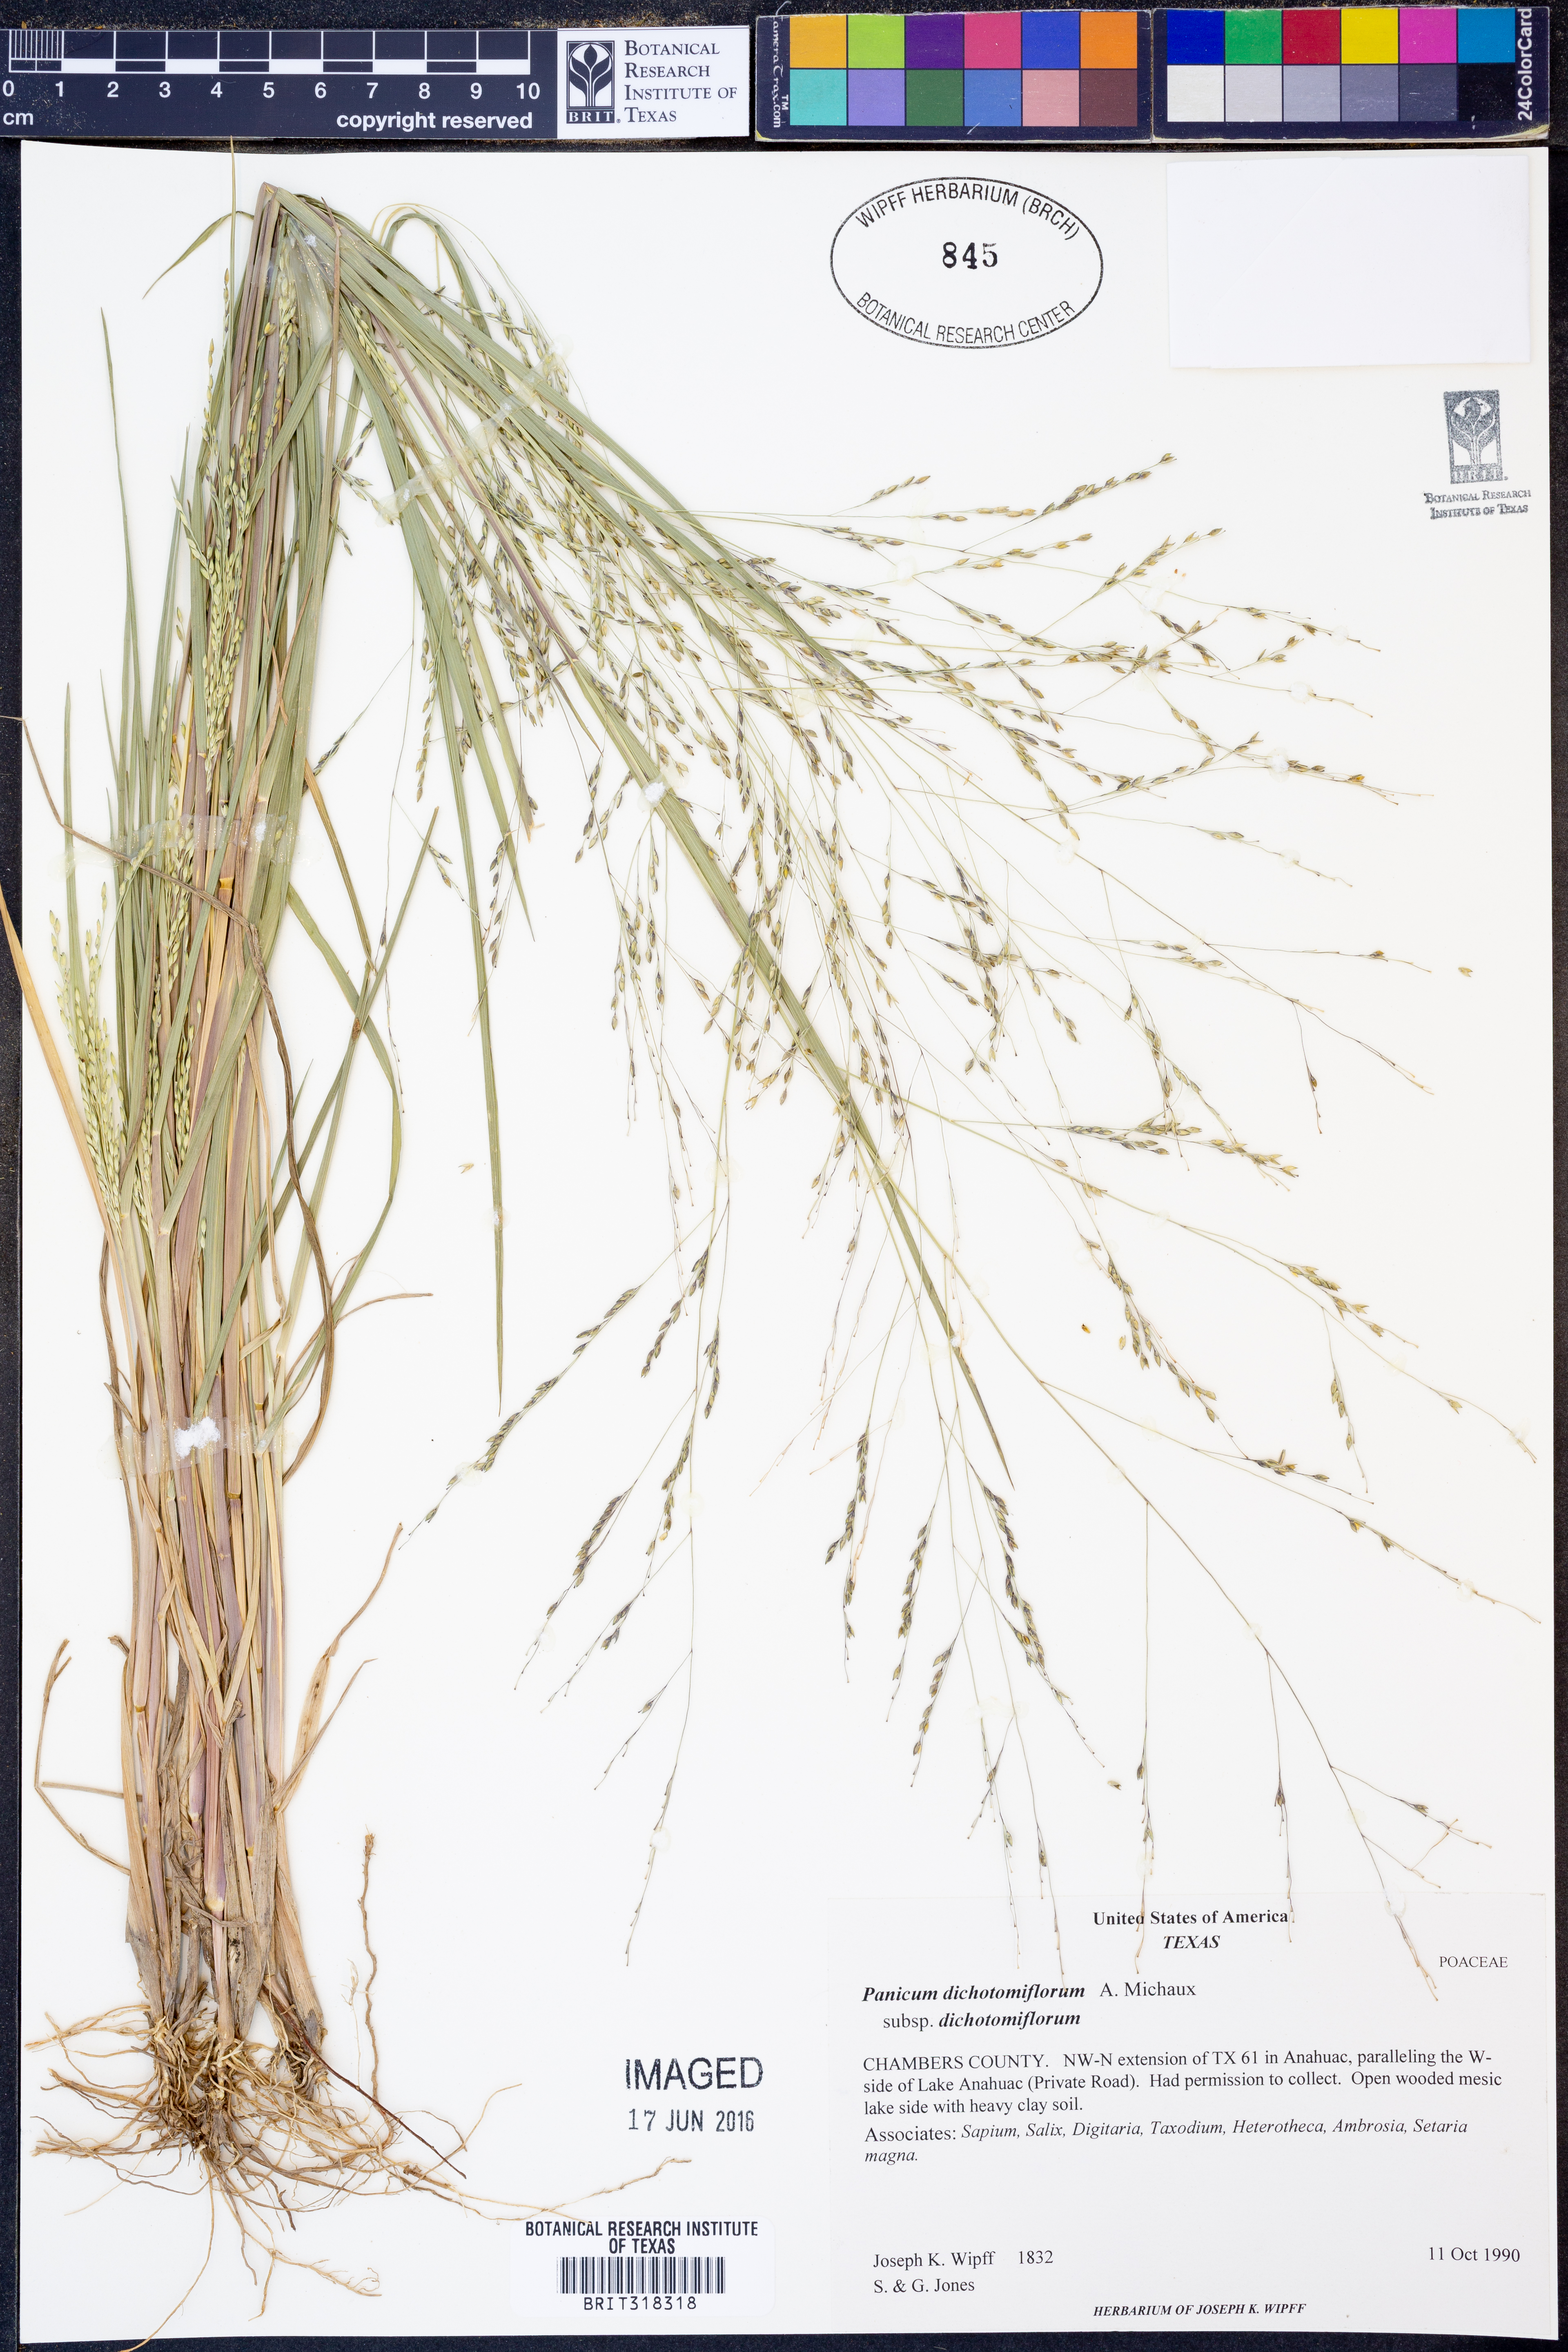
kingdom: Plantae
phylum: Tracheophyta
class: Liliopsida
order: Poales
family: Poaceae
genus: Panicum
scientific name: Panicum dichotomiflorum
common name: Autumn millet
